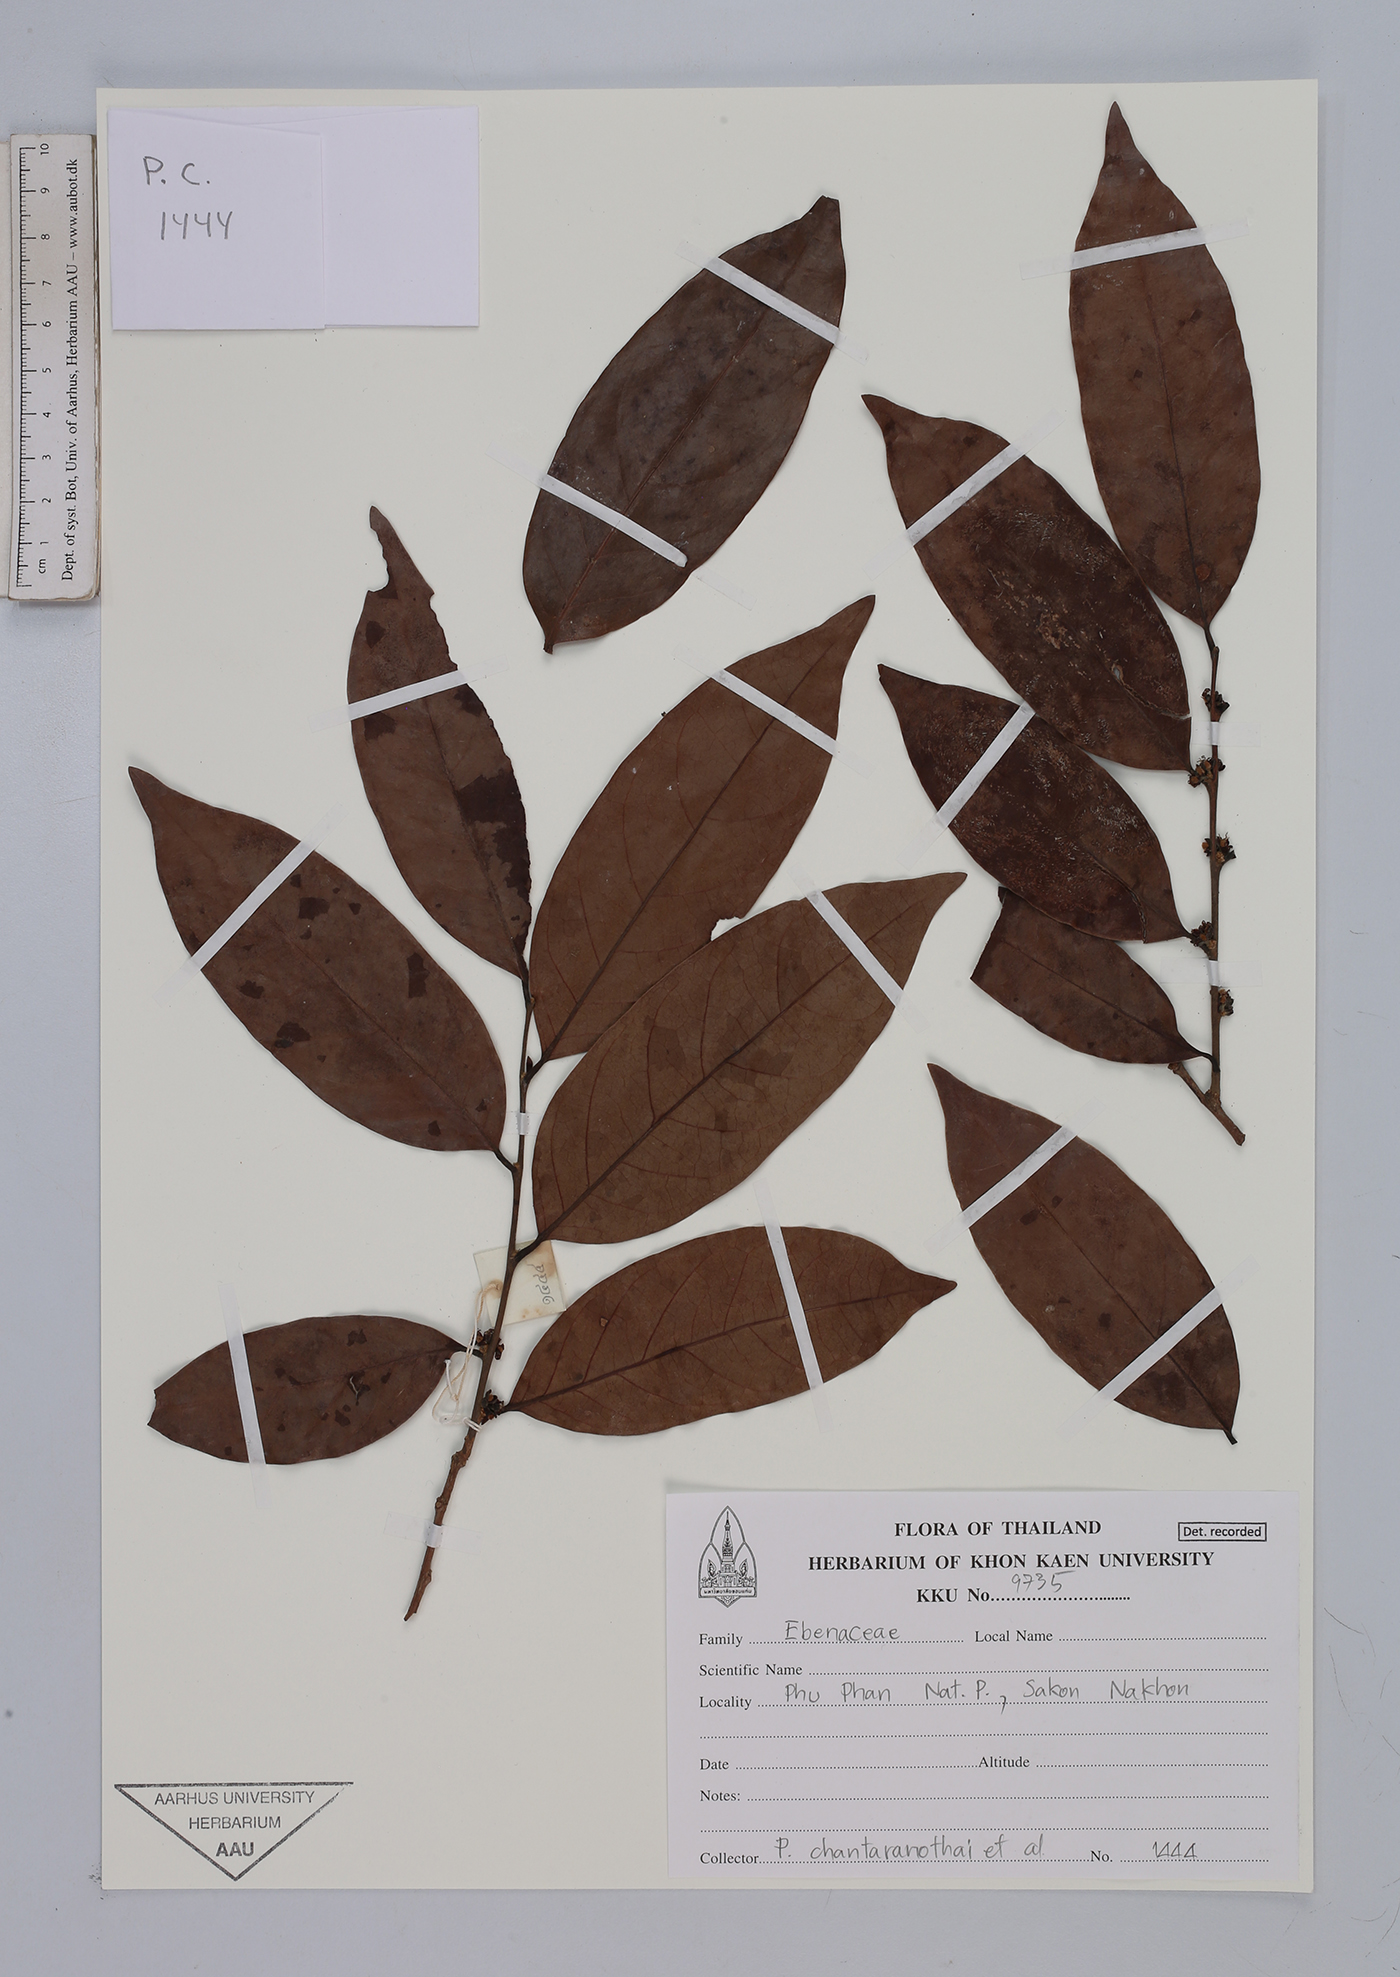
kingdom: Plantae
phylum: Tracheophyta
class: Magnoliopsida
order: Ericales
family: Ebenaceae
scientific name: Ebenaceae
